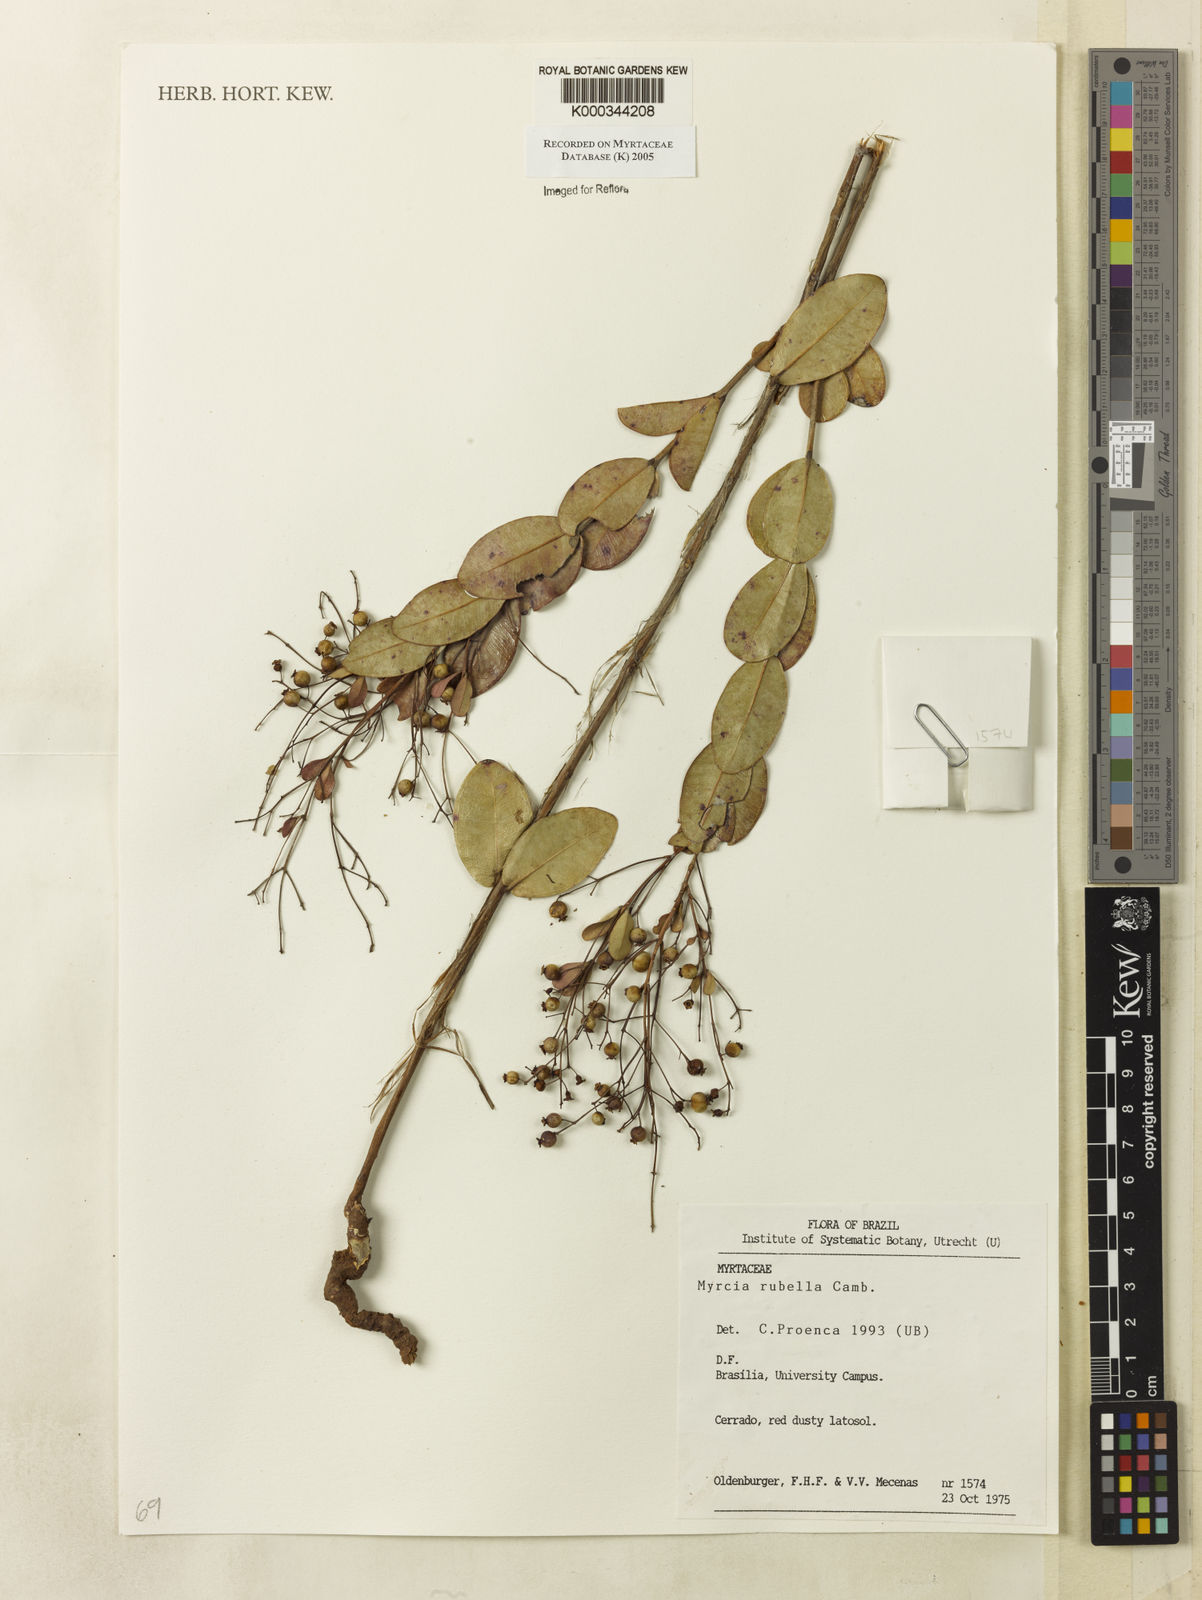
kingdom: Plantae
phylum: Tracheophyta
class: Magnoliopsida
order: Myrtales
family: Myrtaceae
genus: Myrcia
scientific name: Myrcia rubella
